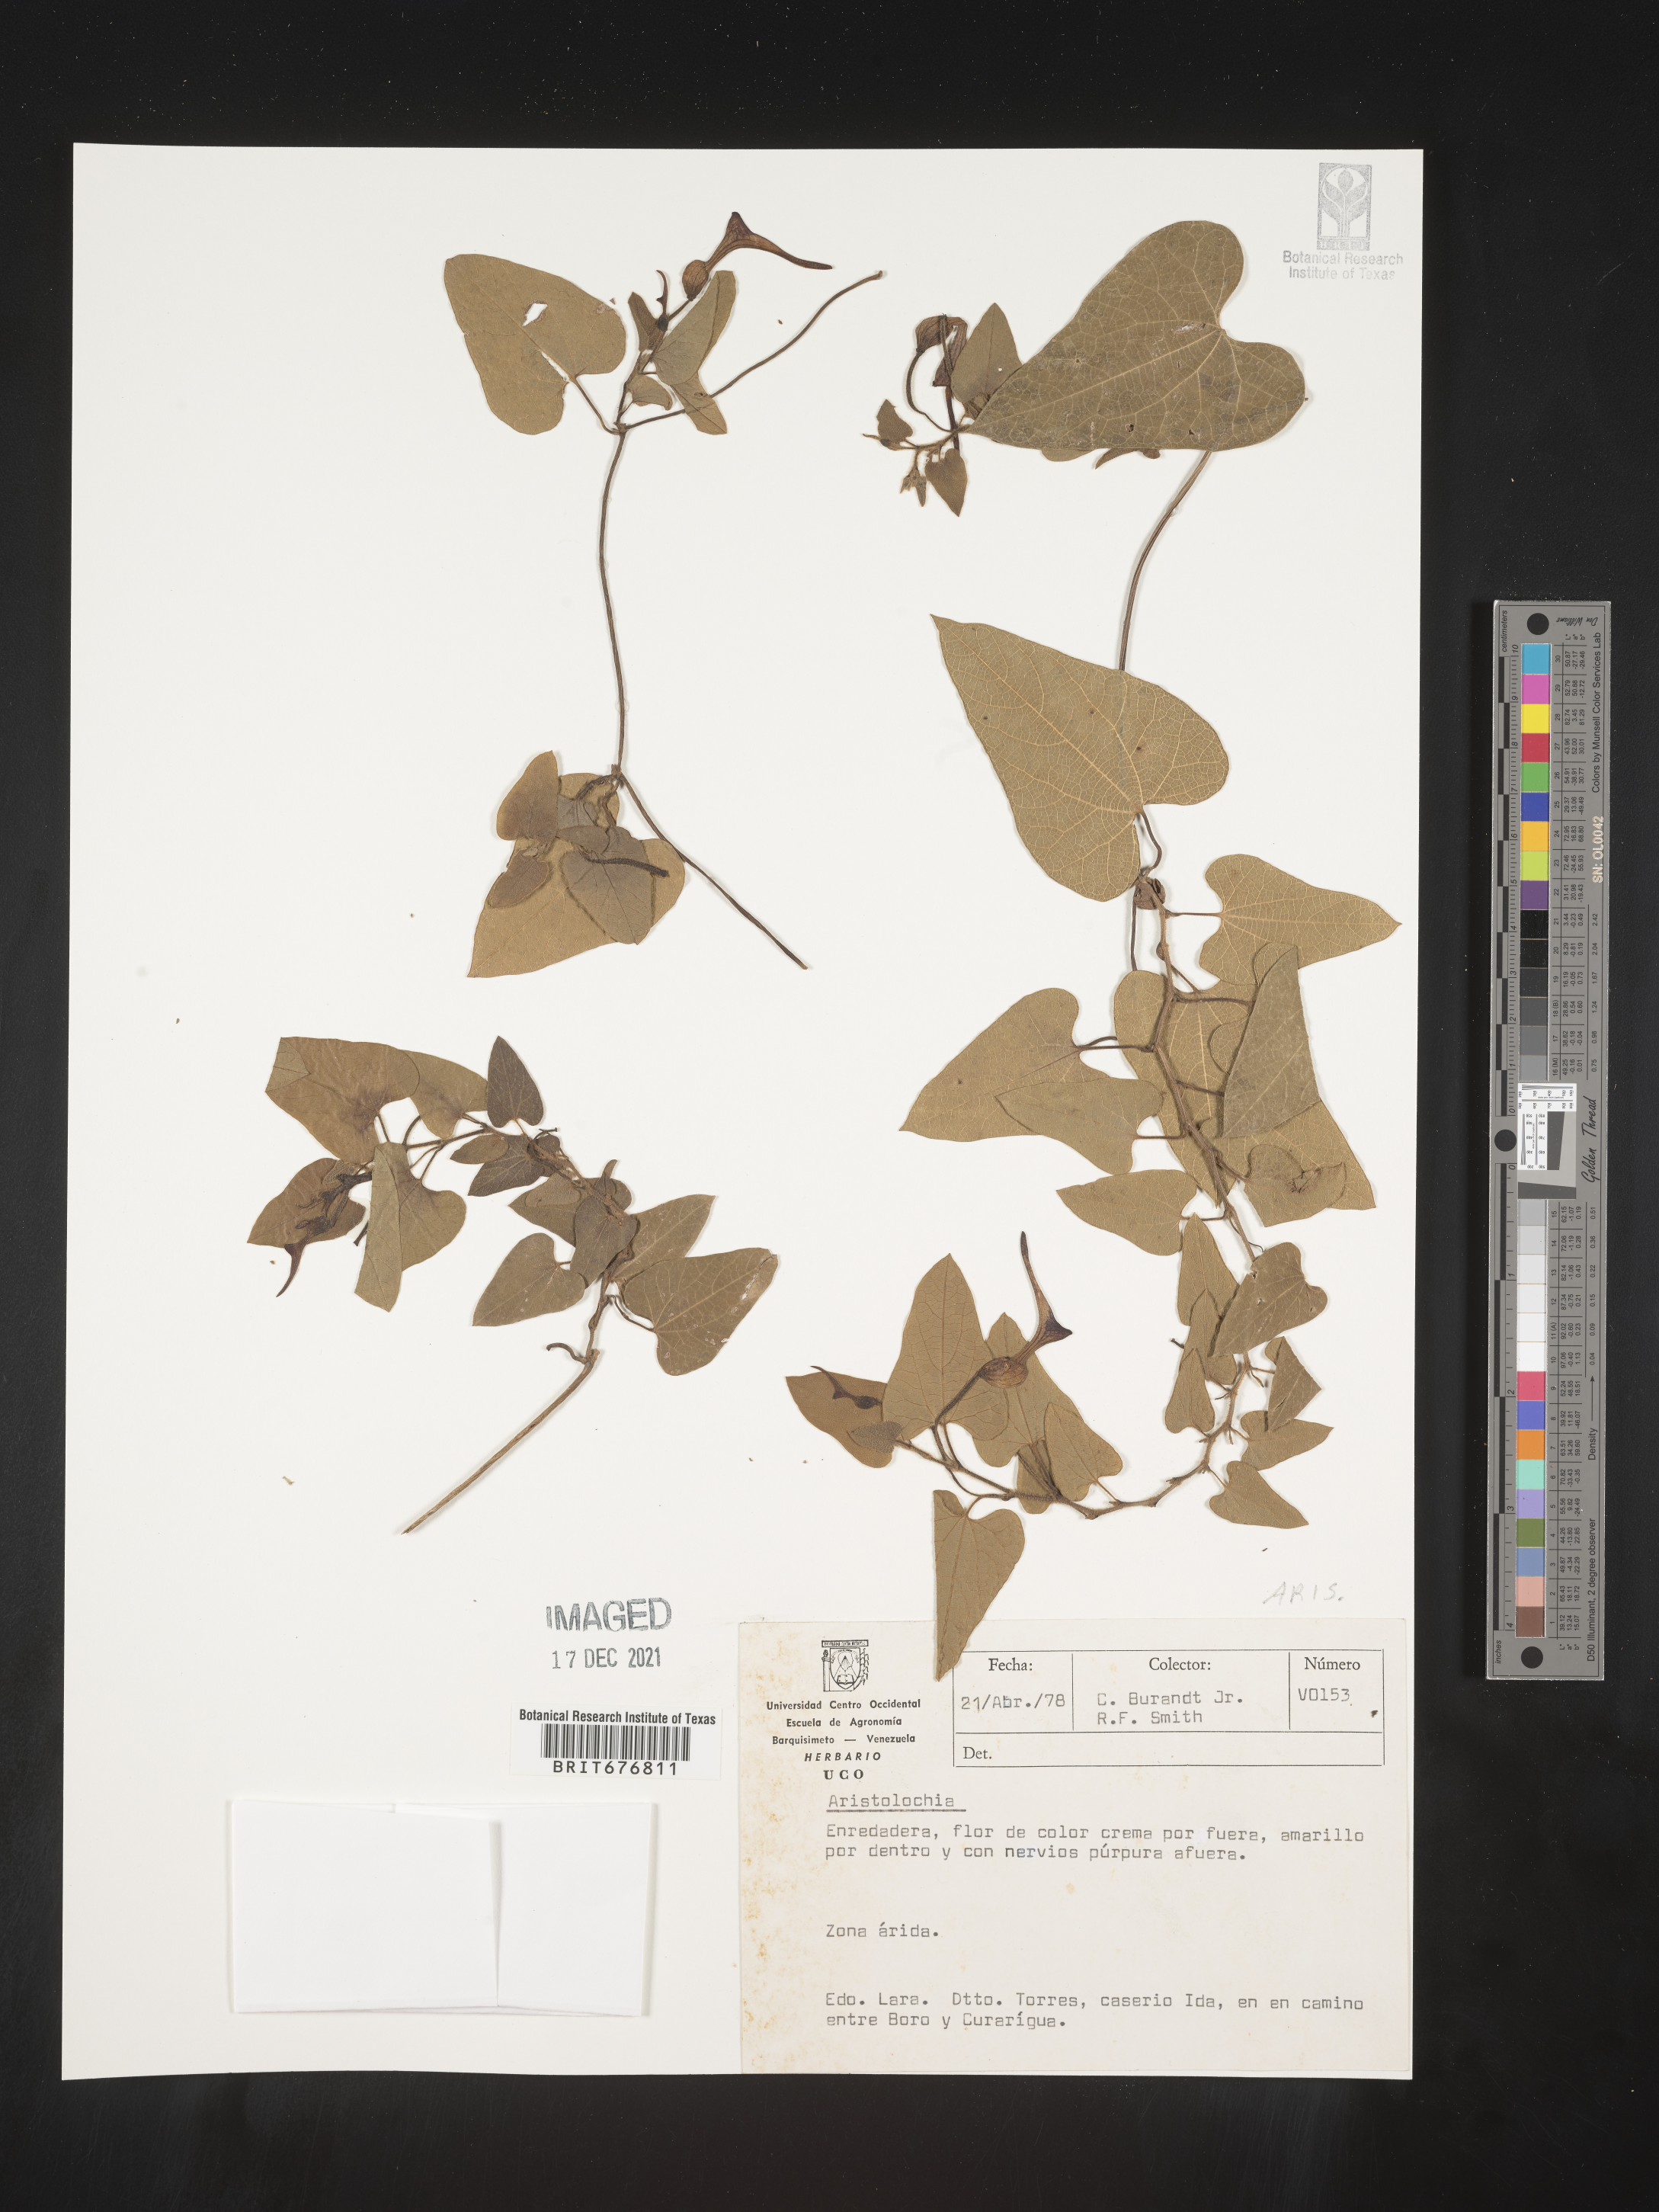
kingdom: Plantae
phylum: Tracheophyta
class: Magnoliopsida
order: Piperales
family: Aristolochiaceae
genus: Aristolochia
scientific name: Aristolochia
